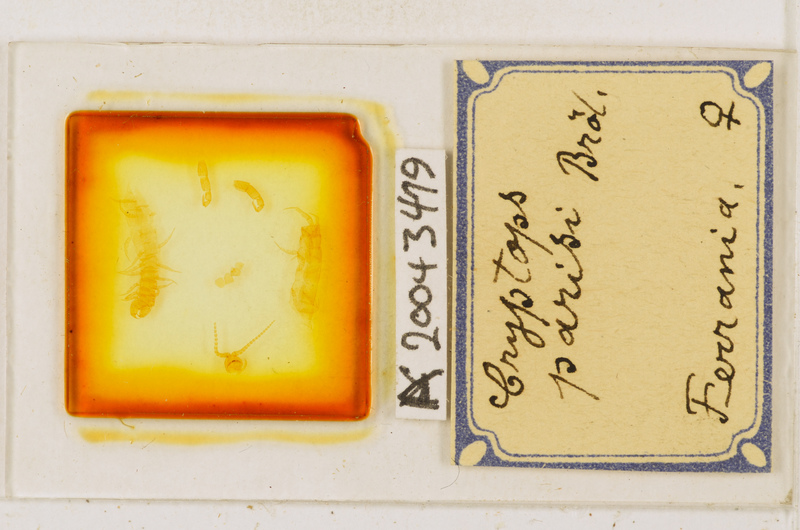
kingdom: Animalia
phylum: Arthropoda
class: Chilopoda
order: Scolopendromorpha
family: Cryptopidae
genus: Cryptops
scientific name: Cryptops parisi
